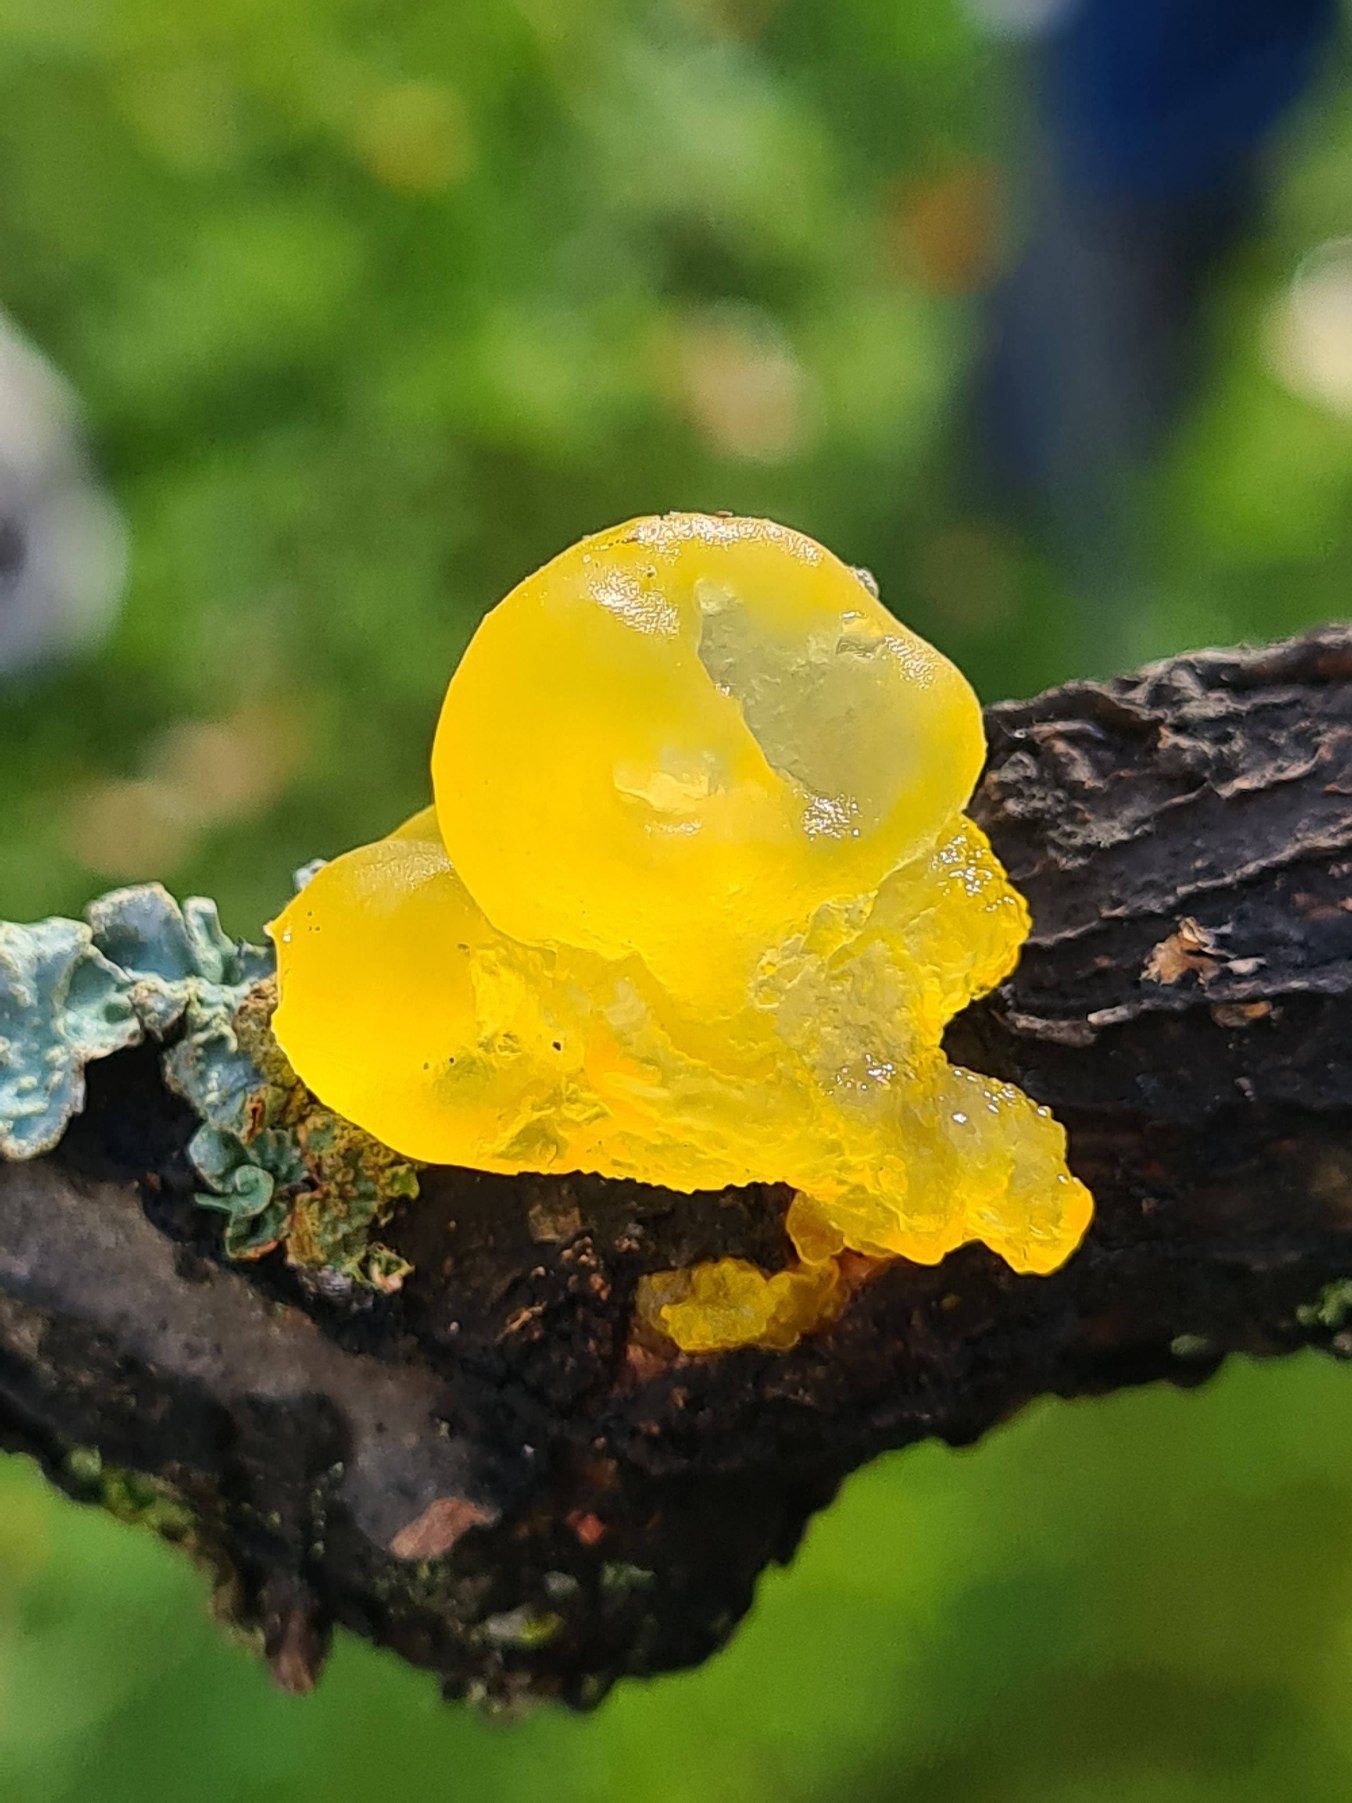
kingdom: Fungi
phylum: Basidiomycota
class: Tremellomycetes
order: Tremellales
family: Tremellaceae
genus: Tremella
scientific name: Tremella mesenterica
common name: Gul bævresvamp
